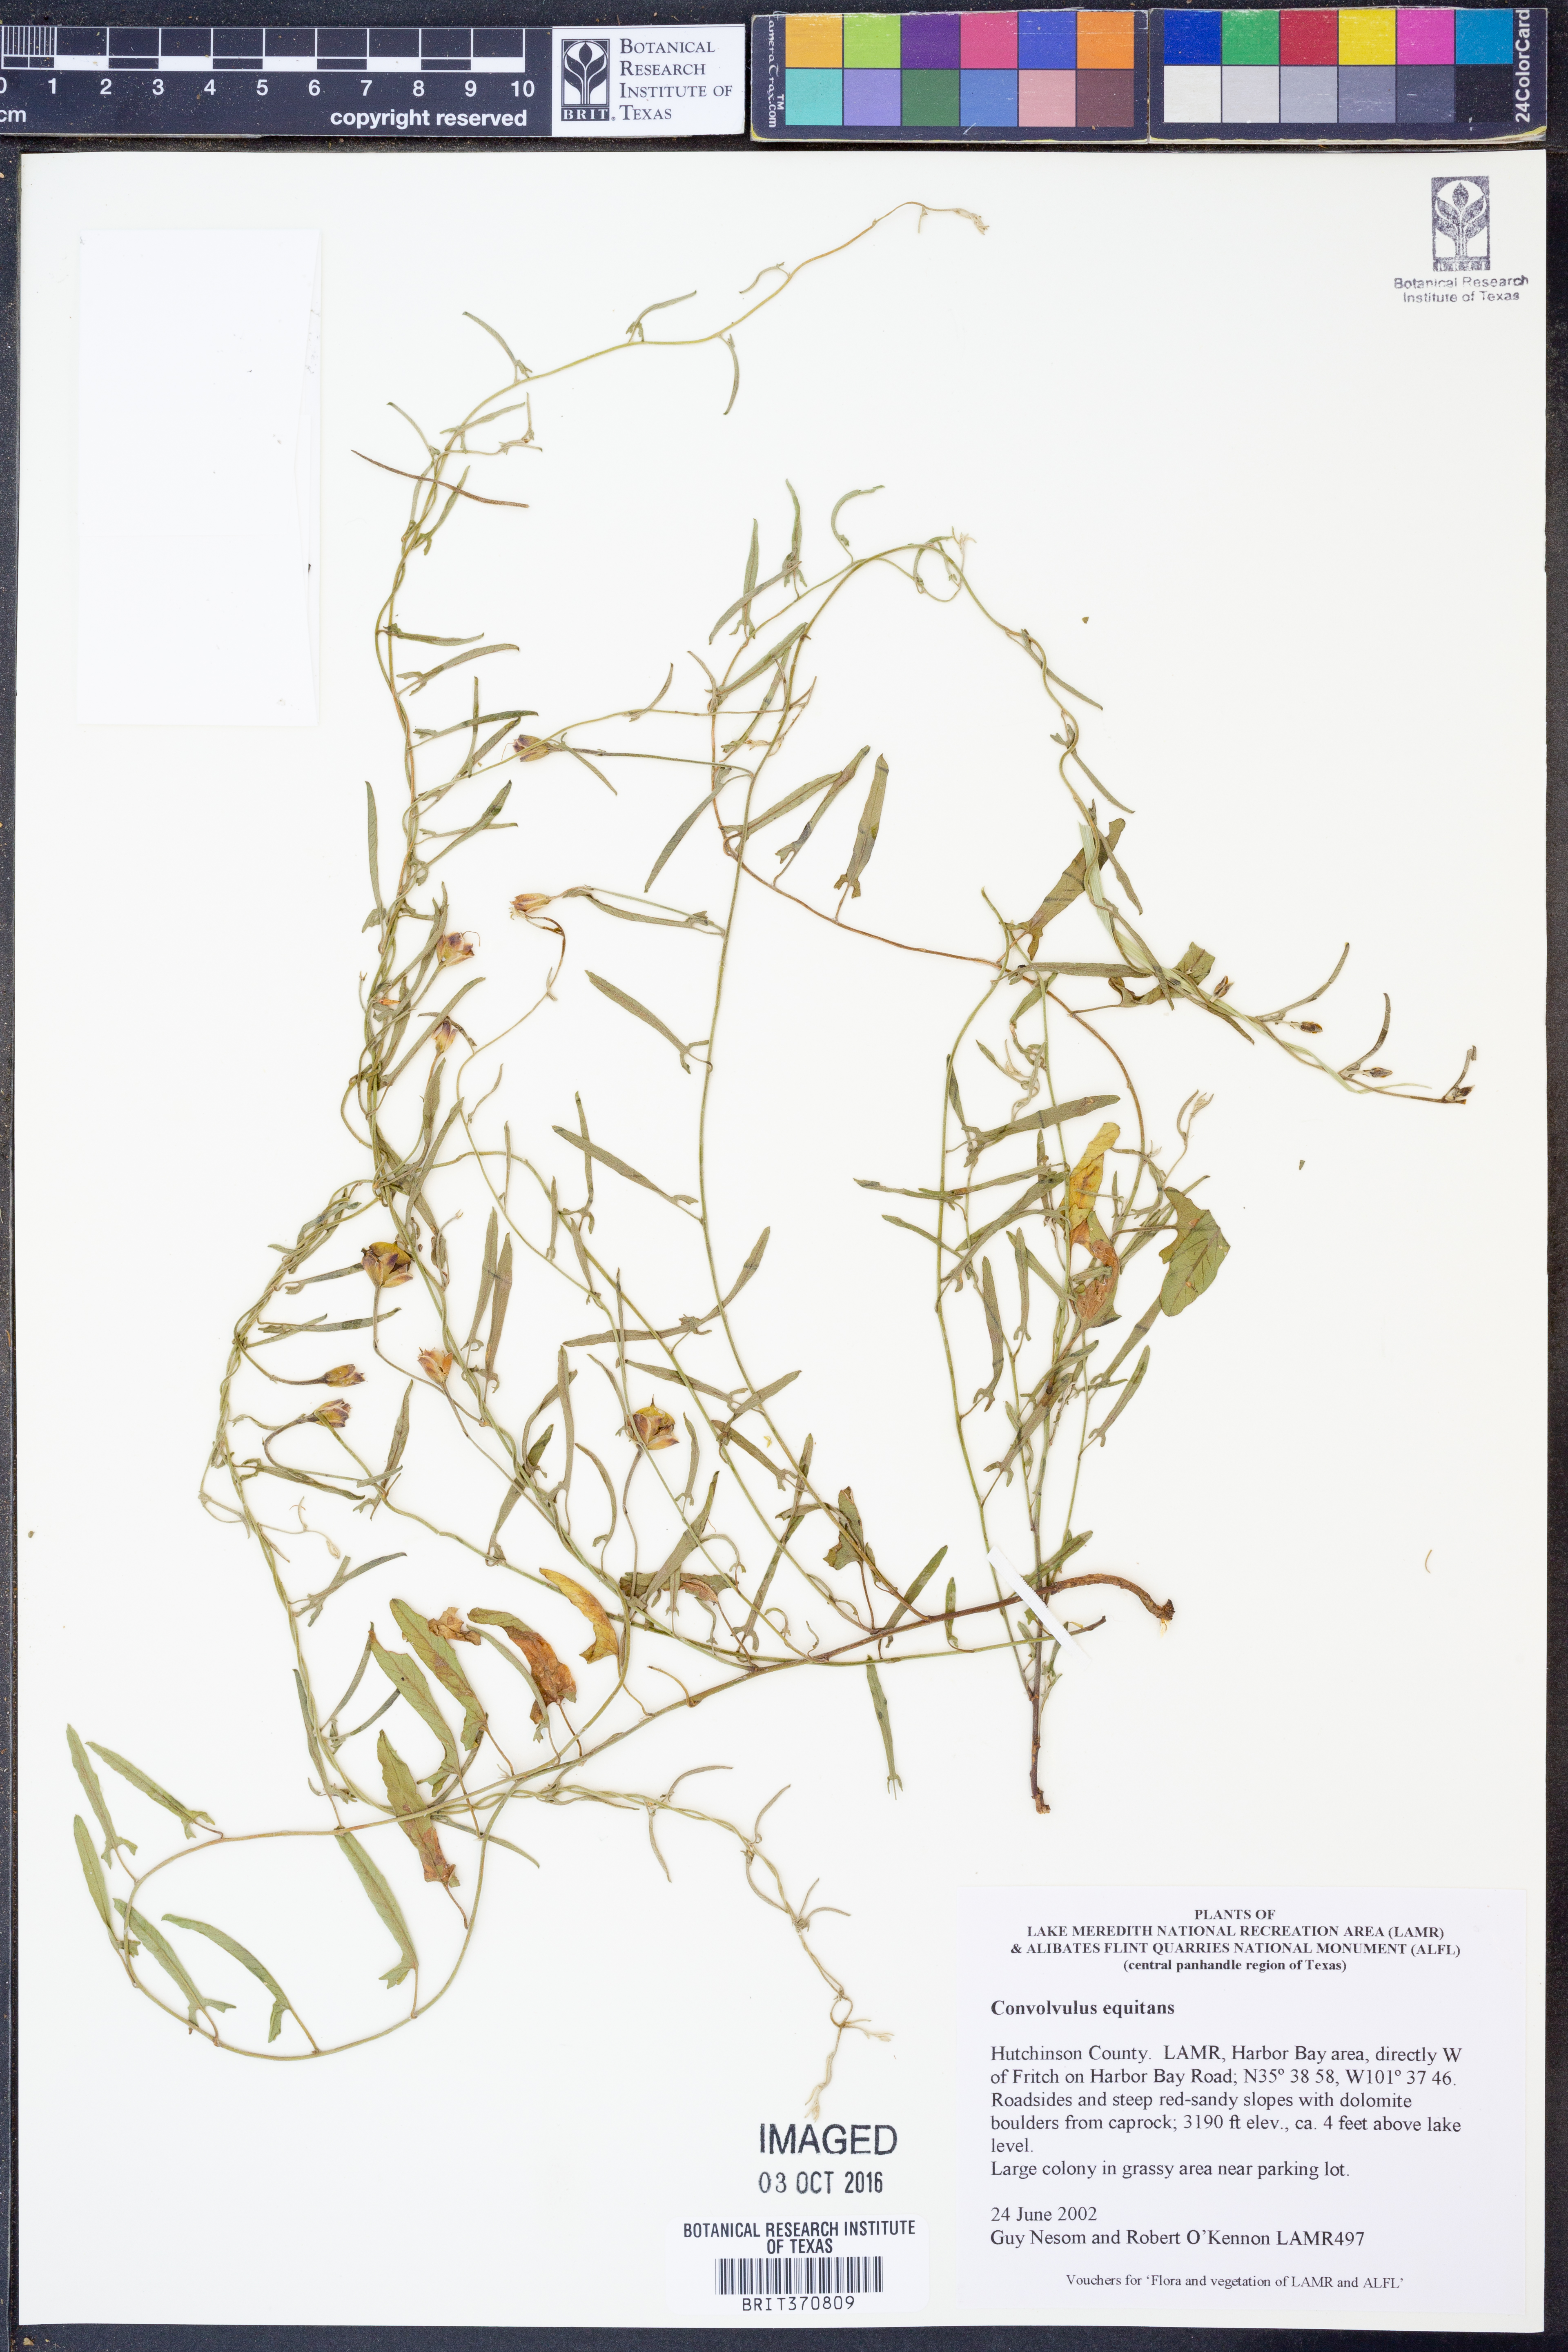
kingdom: Plantae
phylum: Tracheophyta
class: Magnoliopsida
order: Solanales
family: Convolvulaceae
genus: Convolvulus
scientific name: Convolvulus equitans
